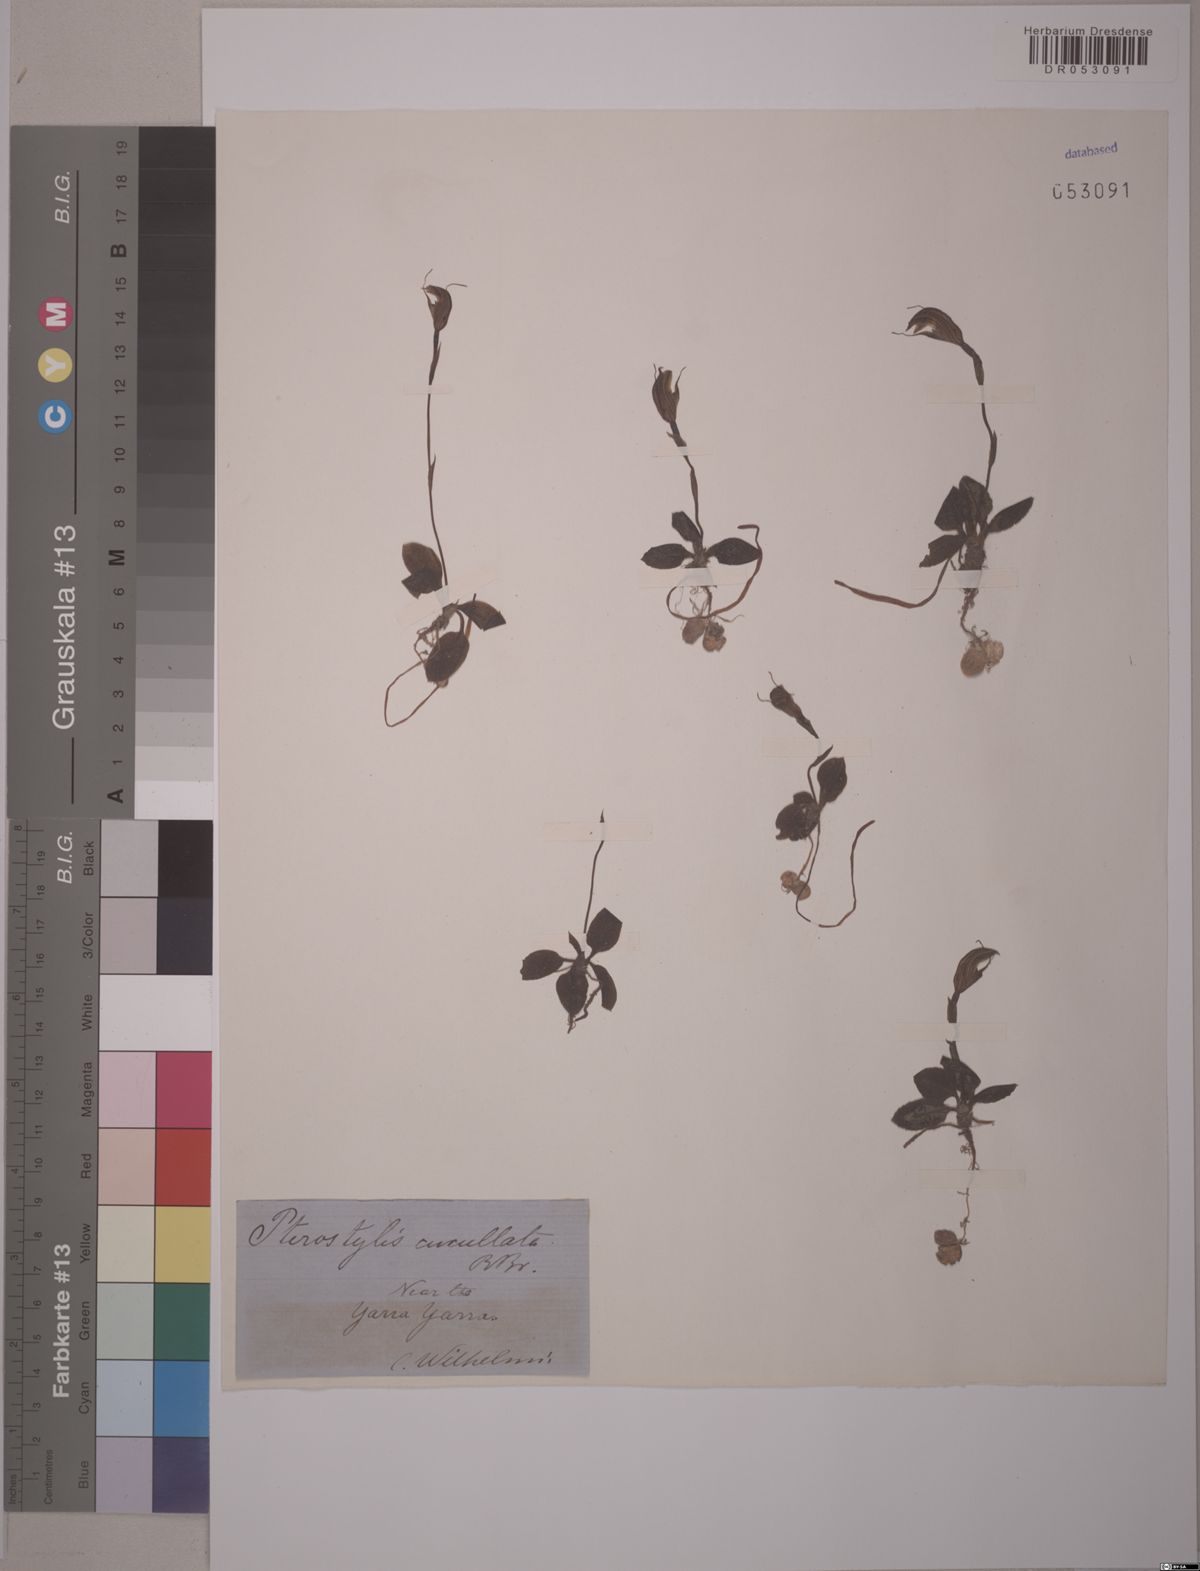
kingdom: Plantae
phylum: Tracheophyta
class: Liliopsida
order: Asparagales
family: Orchidaceae
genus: Pterostylis
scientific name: Pterostylis cucullata
